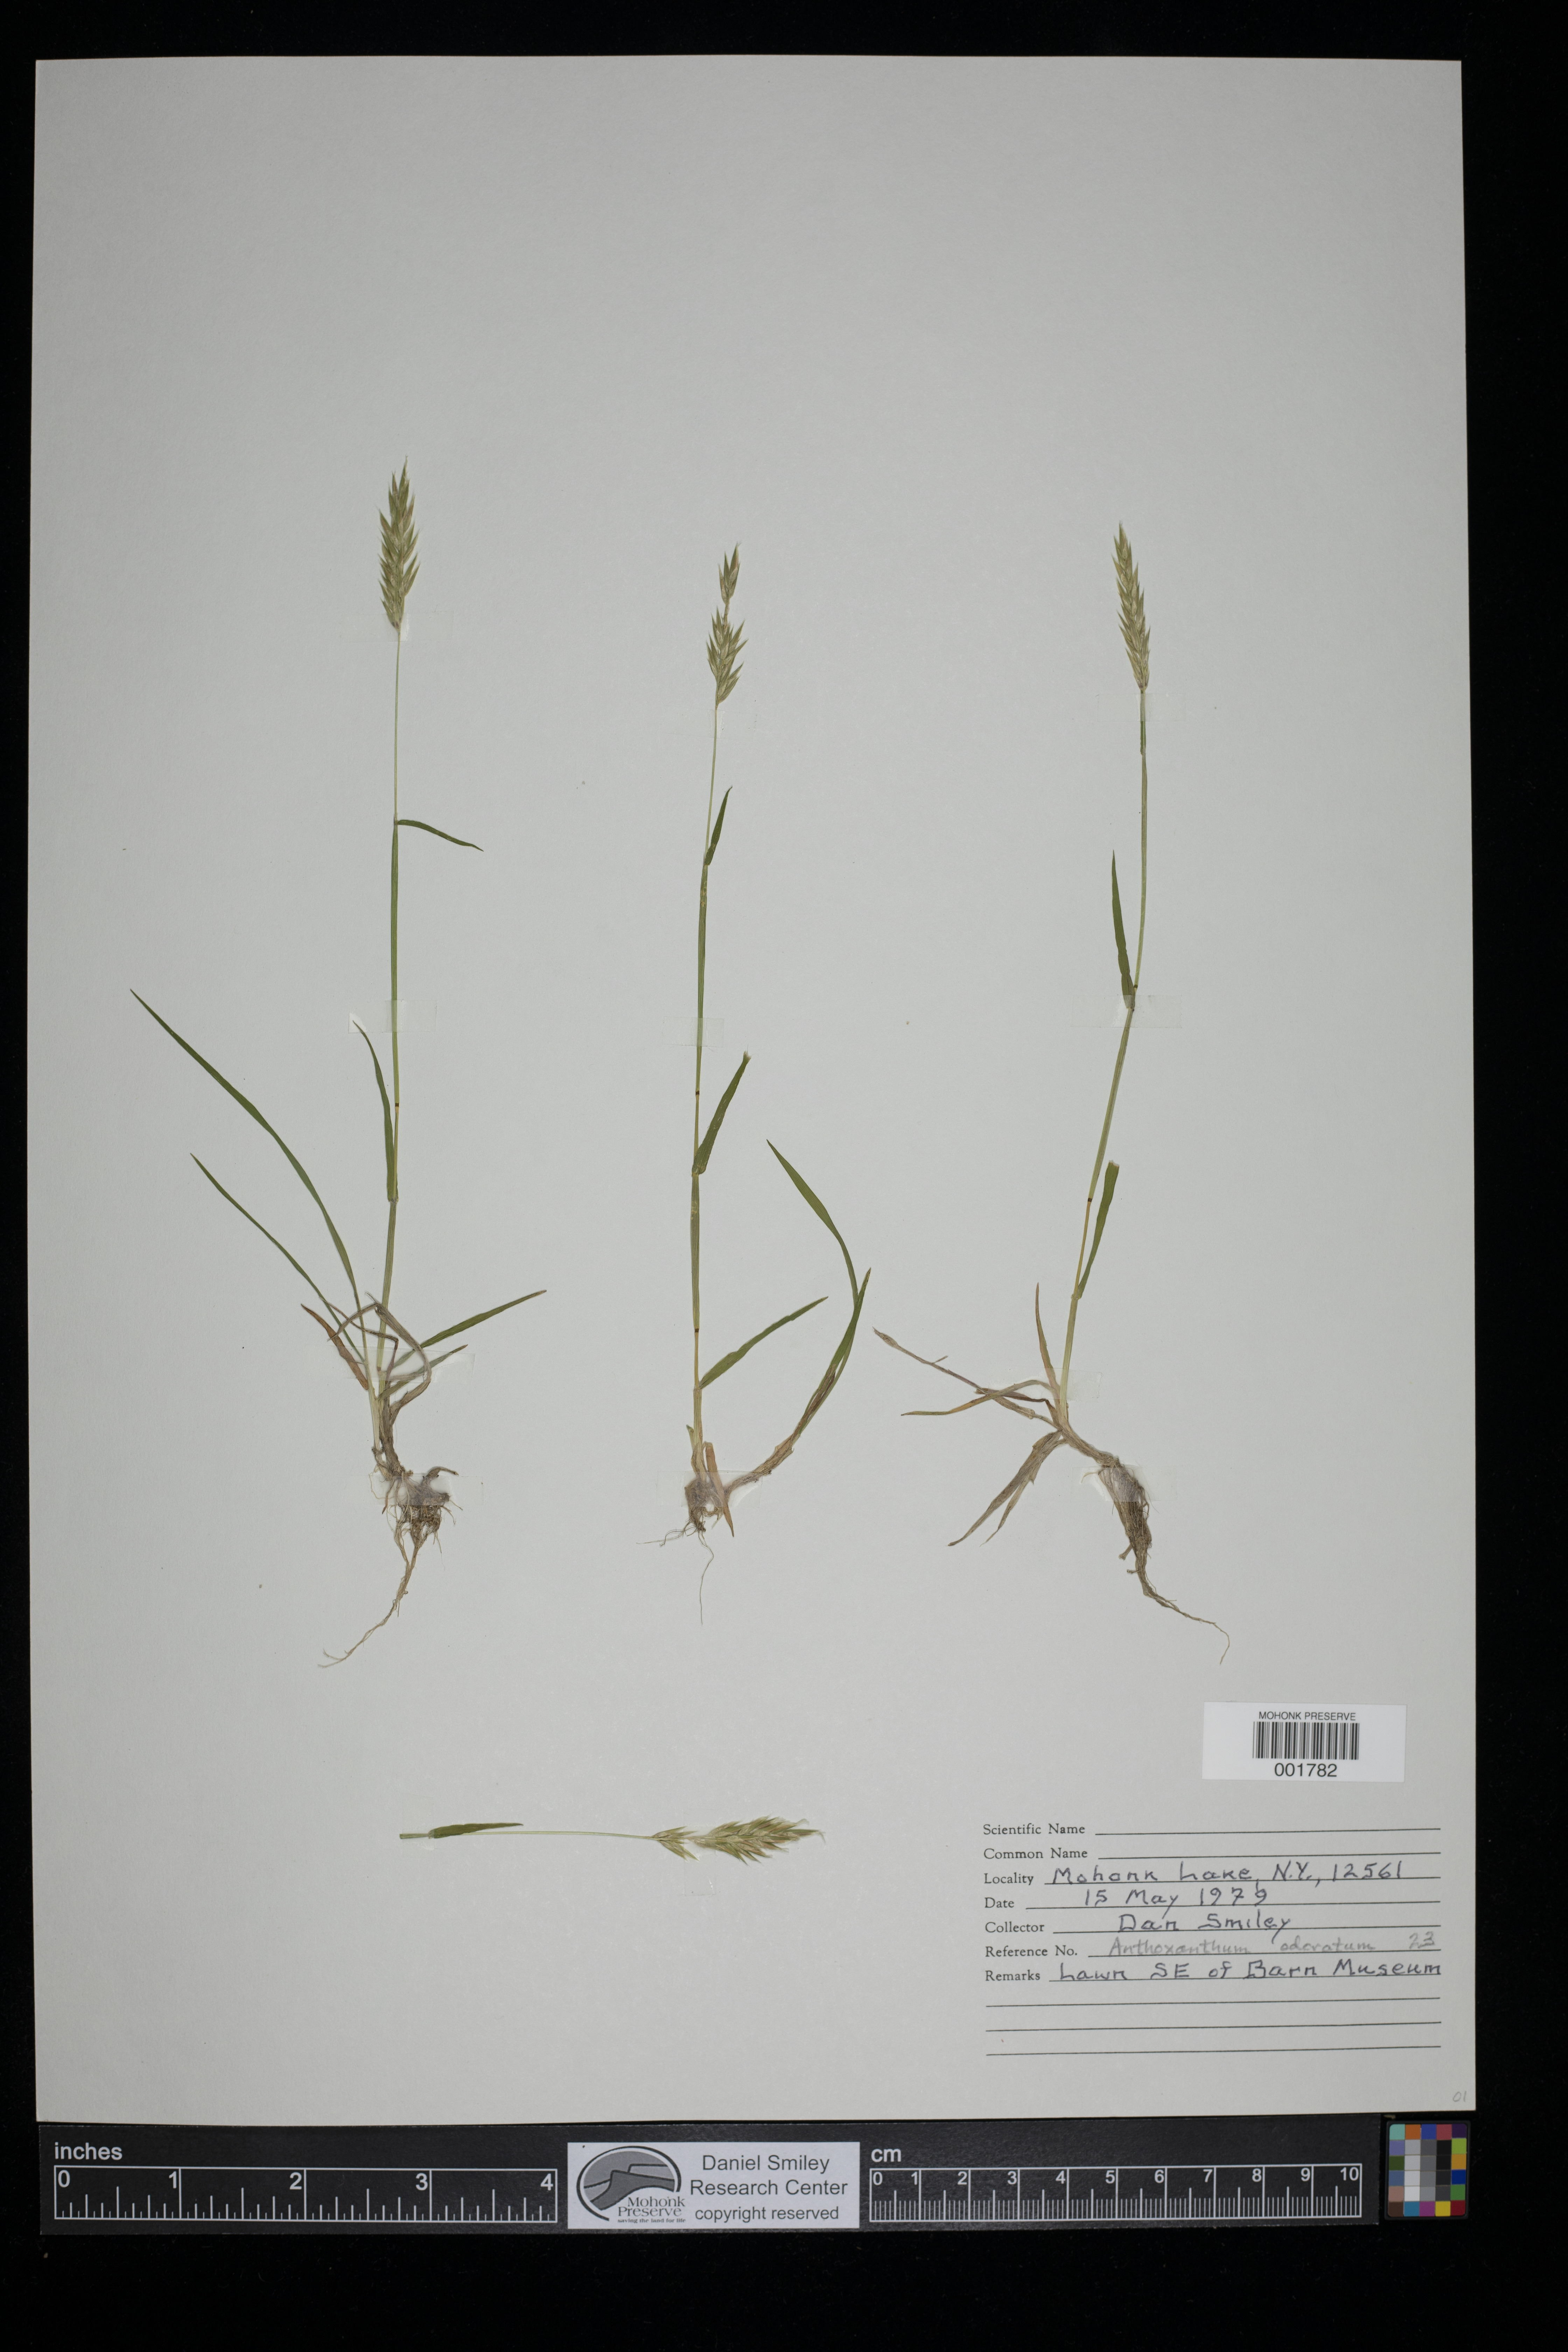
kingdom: Plantae
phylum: Tracheophyta
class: Liliopsida
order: Poales
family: Poaceae
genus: Anthoxanthum
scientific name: Anthoxanthum odoratum
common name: Sweet vernalgrass
